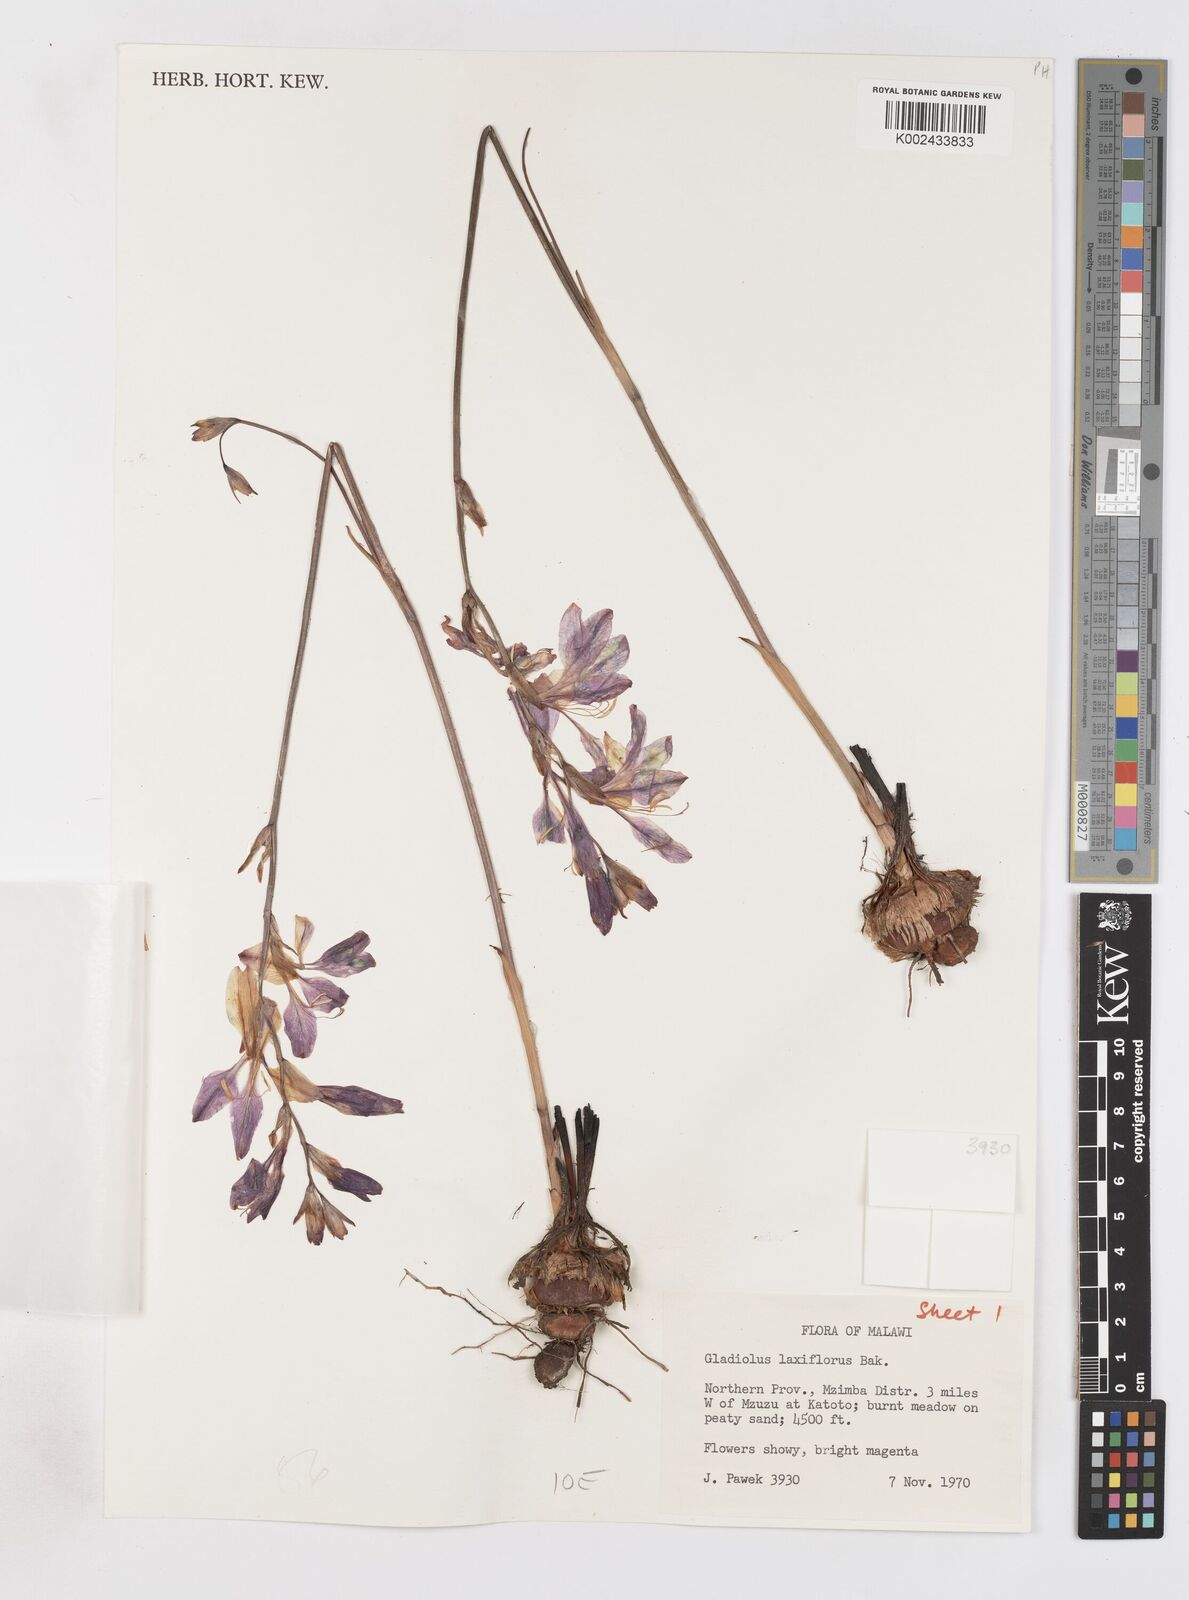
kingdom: Plantae
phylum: Tracheophyta
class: Liliopsida
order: Asparagales
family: Iridaceae
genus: Gladiolus
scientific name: Gladiolus laxiflorus
